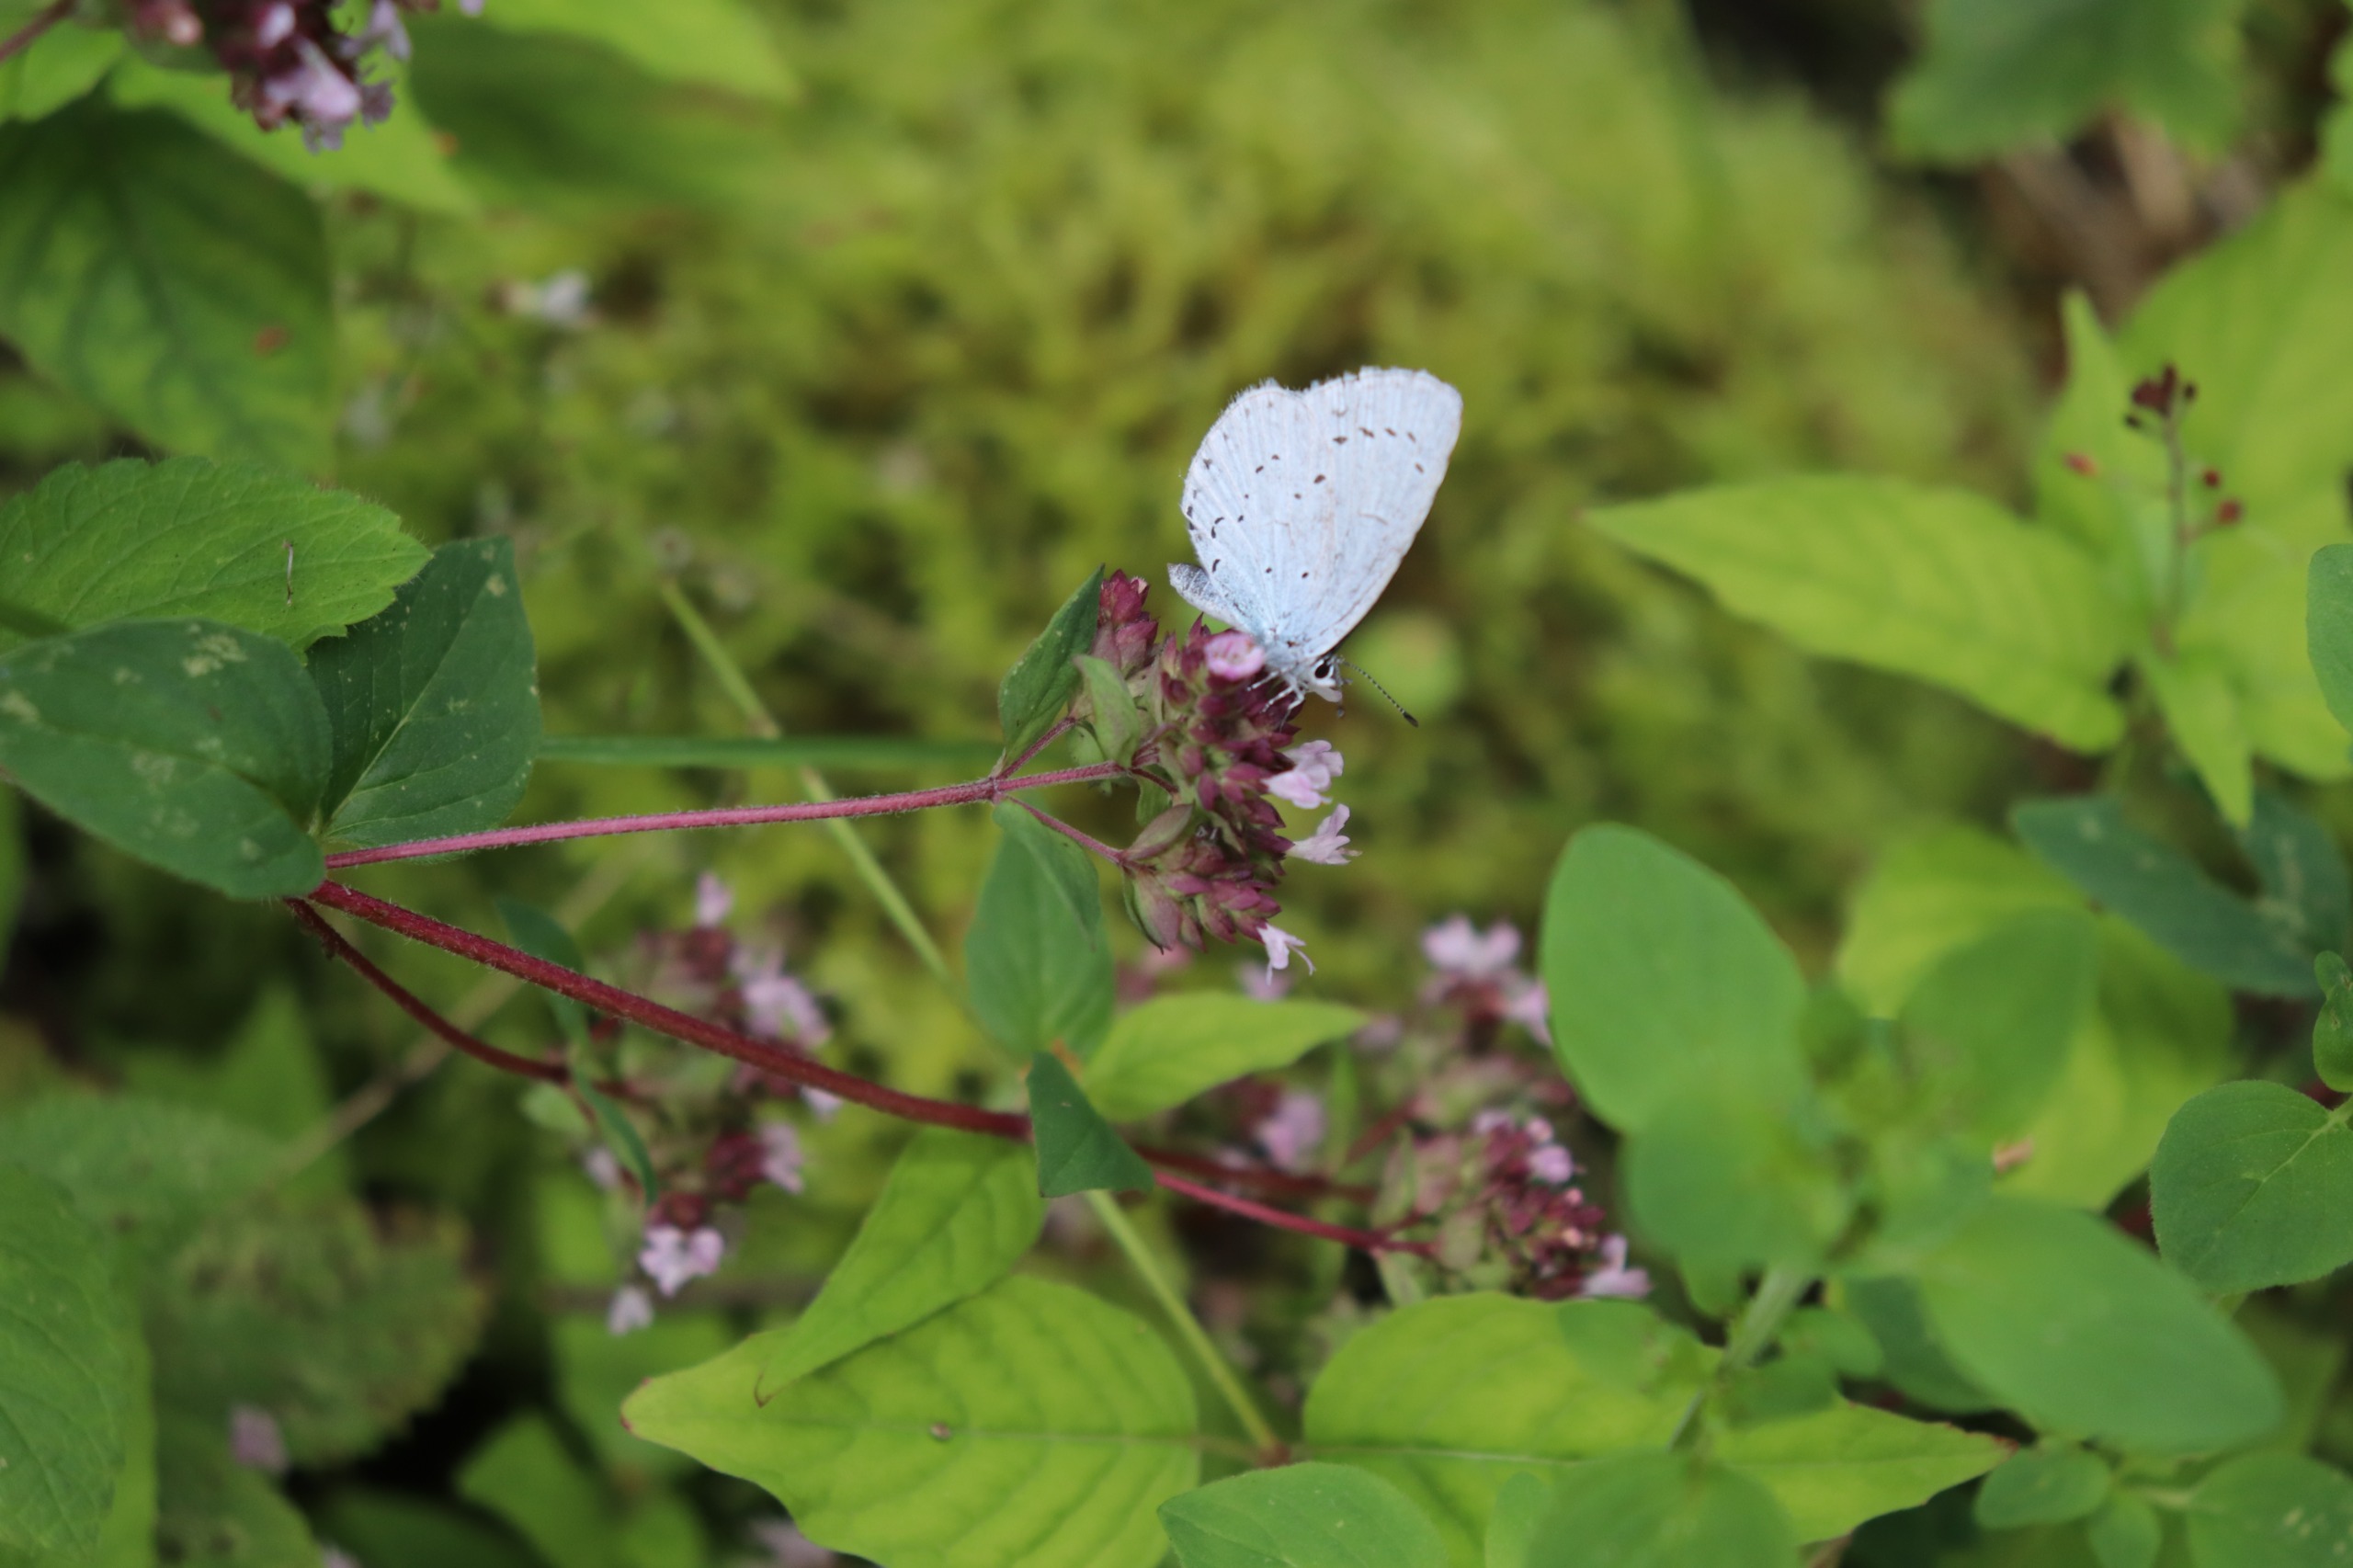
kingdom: Animalia
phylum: Arthropoda
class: Insecta
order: Lepidoptera
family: Lycaenidae
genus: Celastrina
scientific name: Celastrina argiolus
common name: Skovblåfugl
